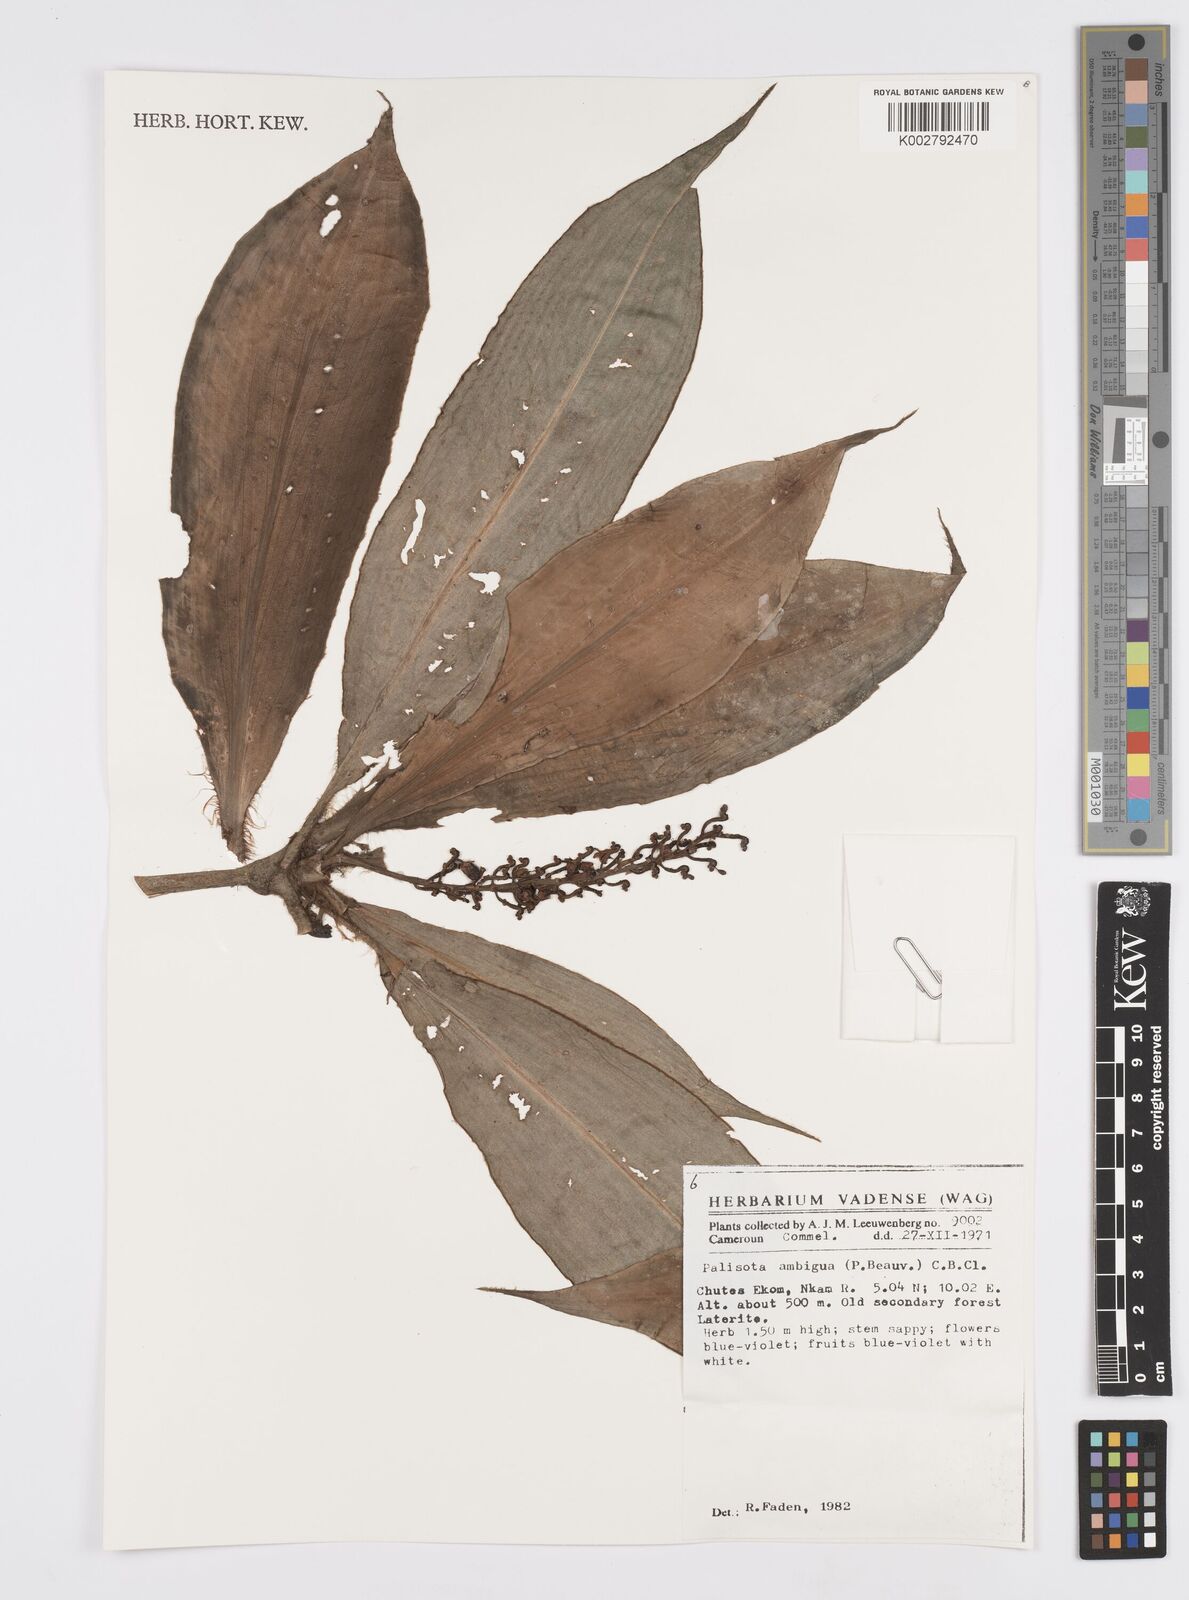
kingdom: Plantae
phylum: Tracheophyta
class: Liliopsida
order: Commelinales
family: Commelinaceae
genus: Palisota
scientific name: Palisota ambigua
